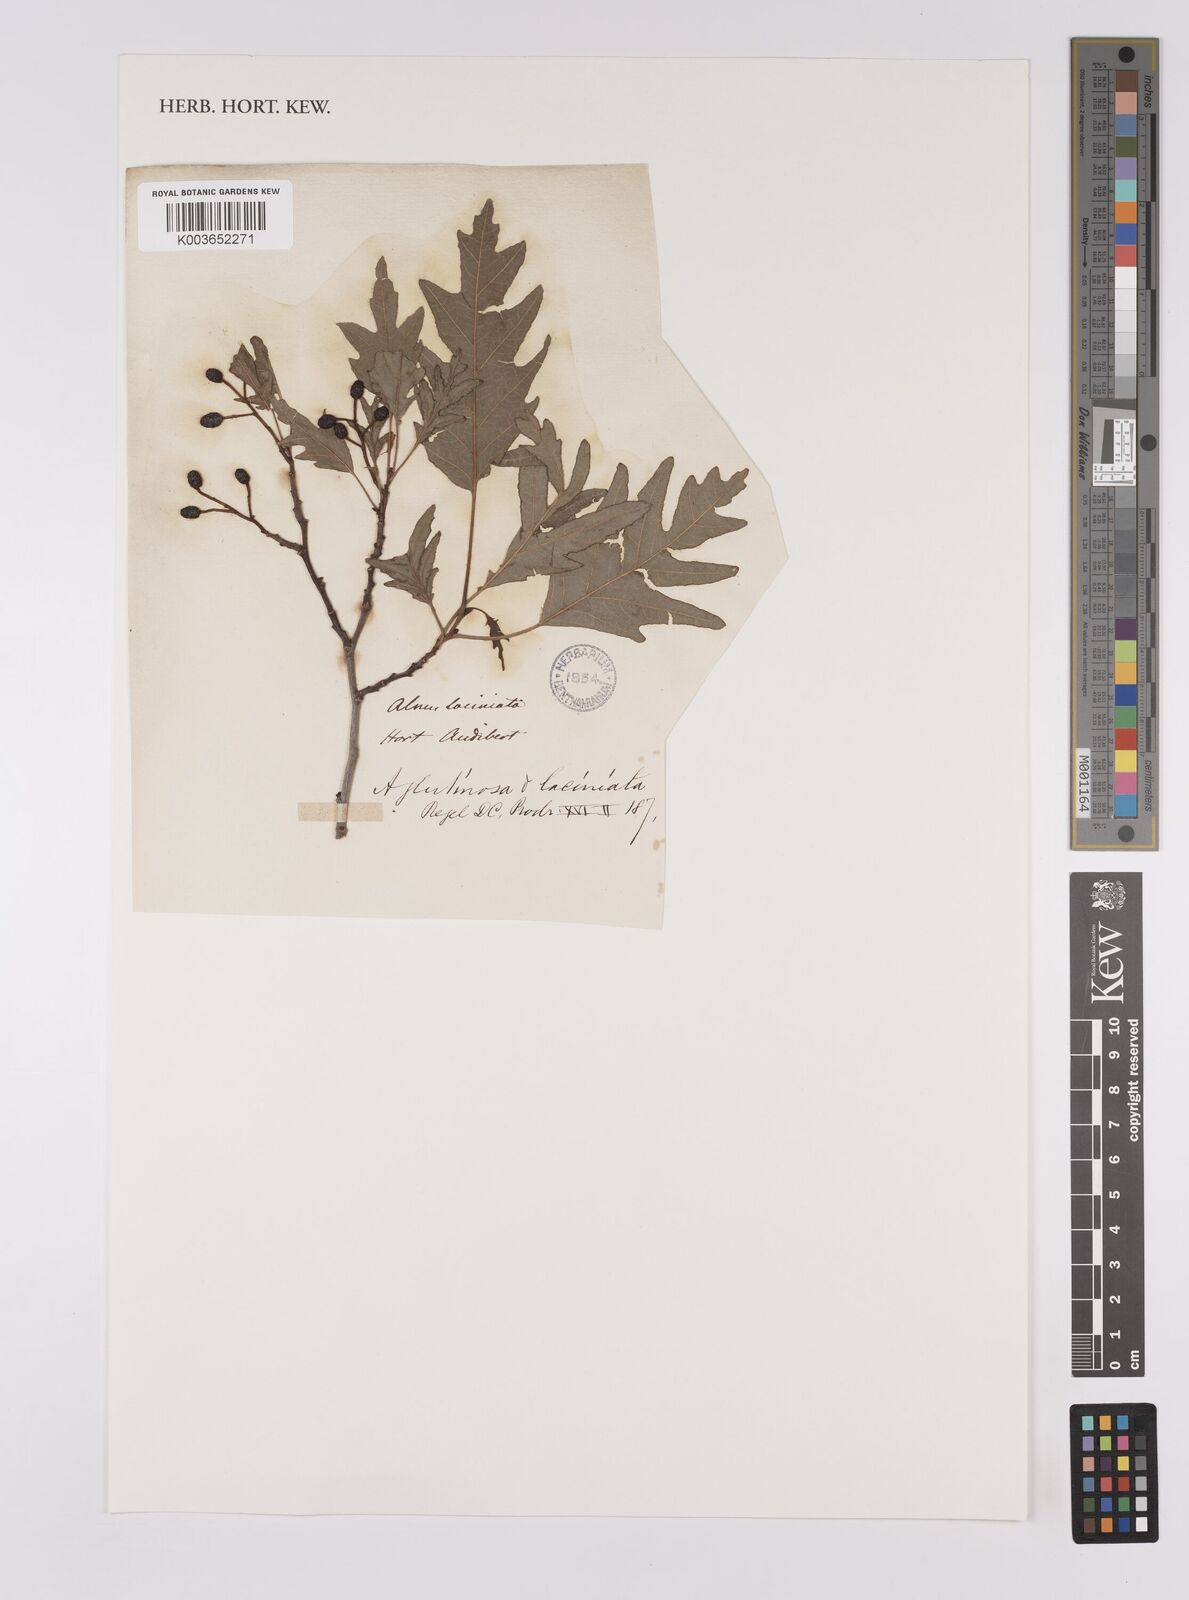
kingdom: Plantae
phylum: Tracheophyta
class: Magnoliopsida
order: Fagales
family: Betulaceae
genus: Alnus
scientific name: Alnus glutinosa
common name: Black alder
